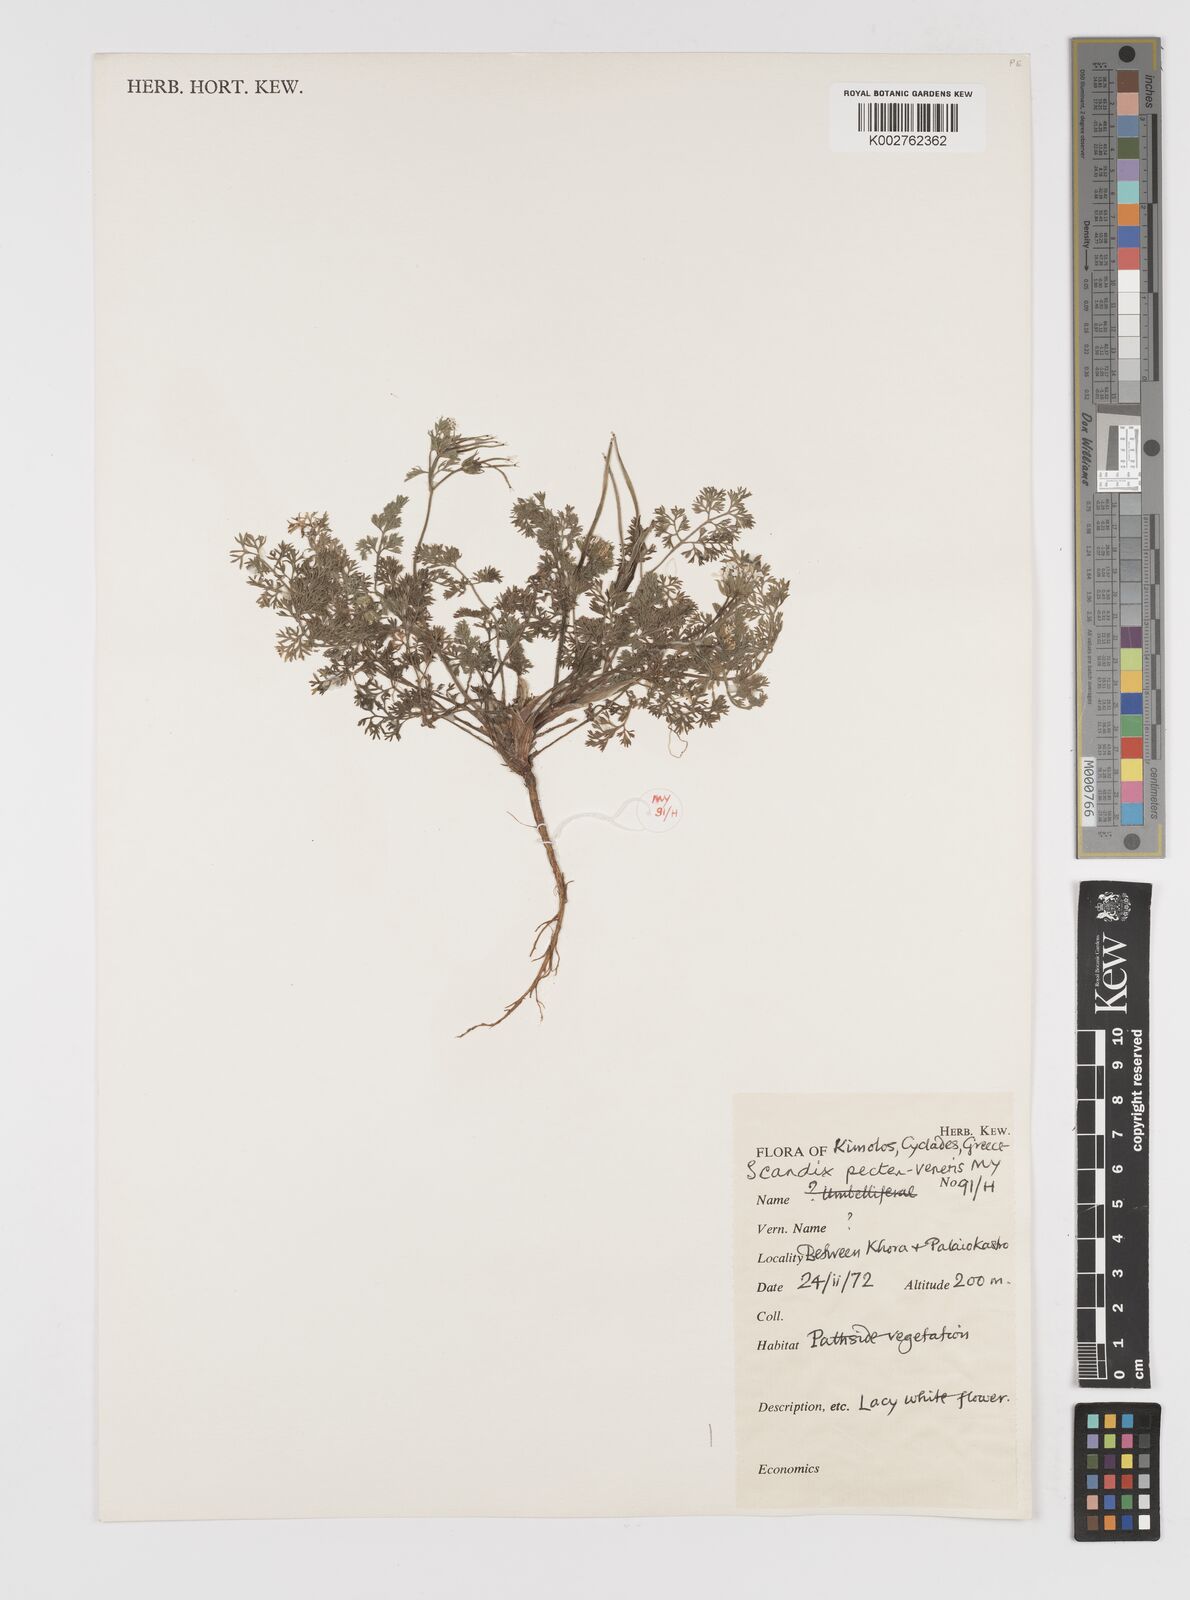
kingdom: Plantae
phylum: Tracheophyta
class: Magnoliopsida
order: Apiales
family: Apiaceae
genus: Scandix
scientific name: Scandix pecten-veneris
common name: Shepherd's-needle
